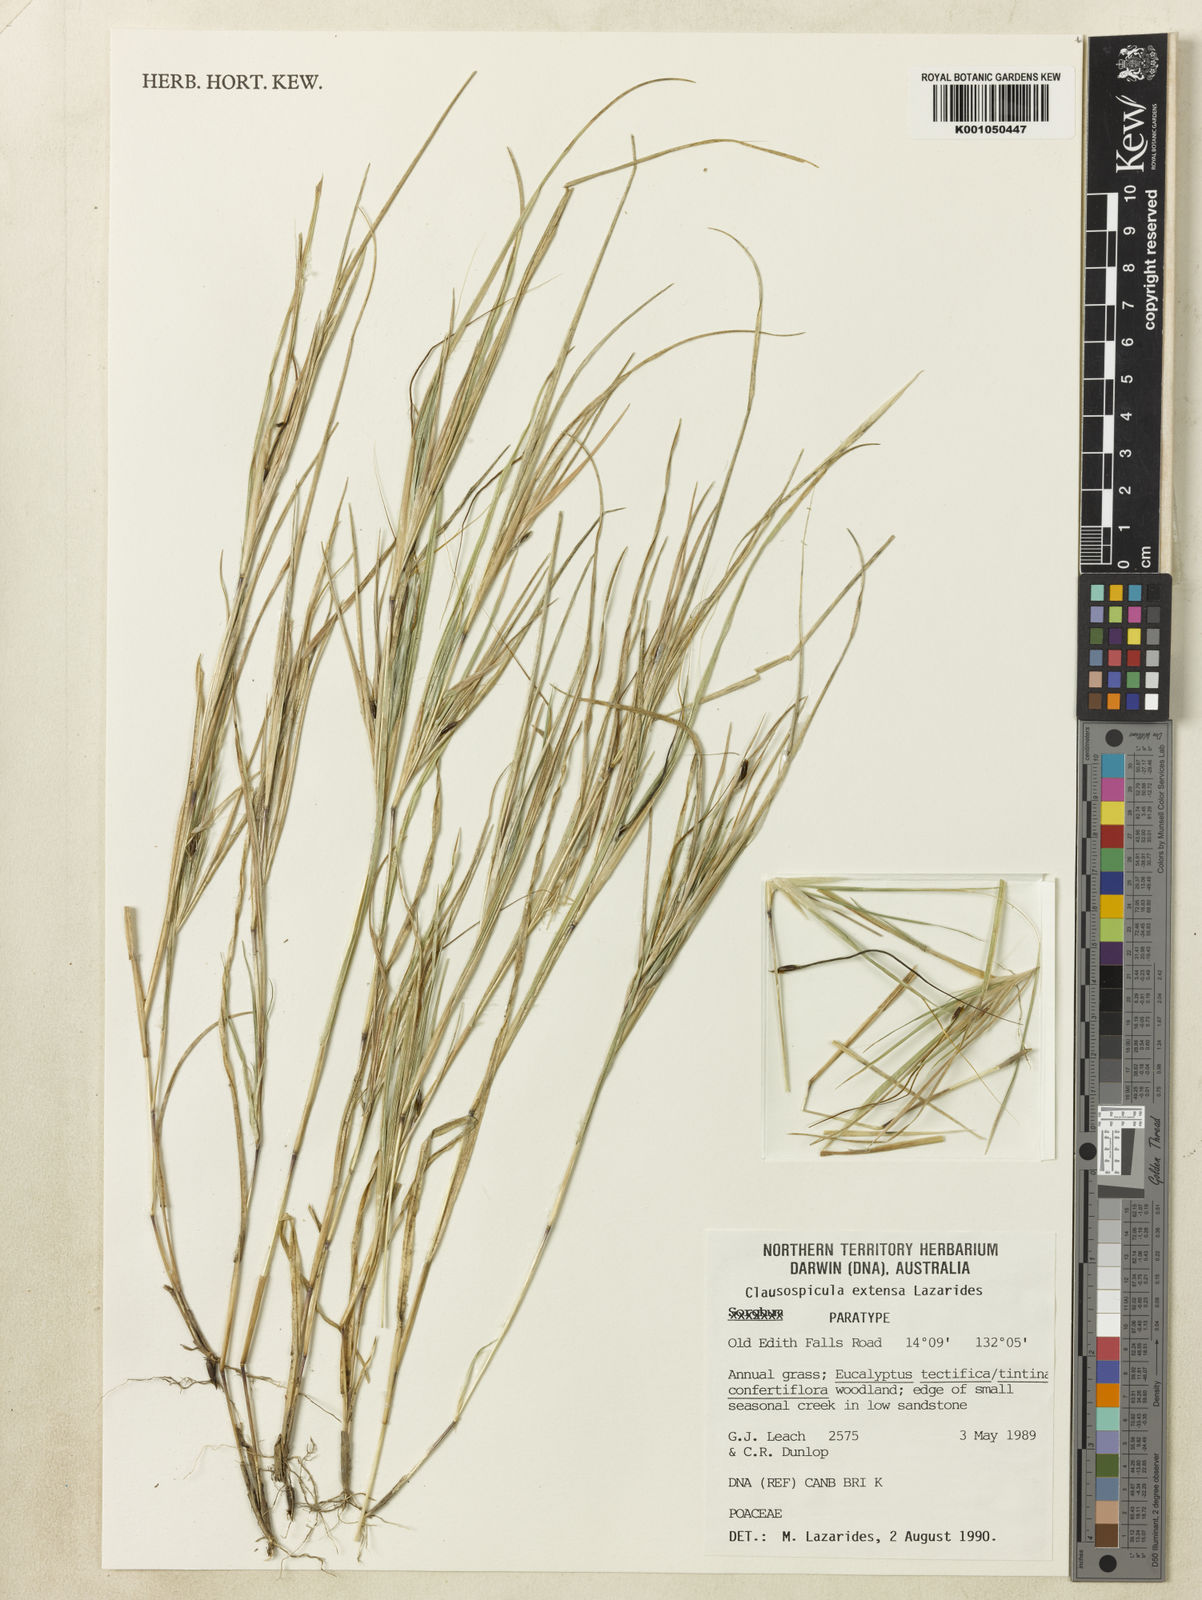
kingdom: Plantae
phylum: Tracheophyta
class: Liliopsida
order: Poales
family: Poaceae
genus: Clausospicula
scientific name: Clausospicula extensa
